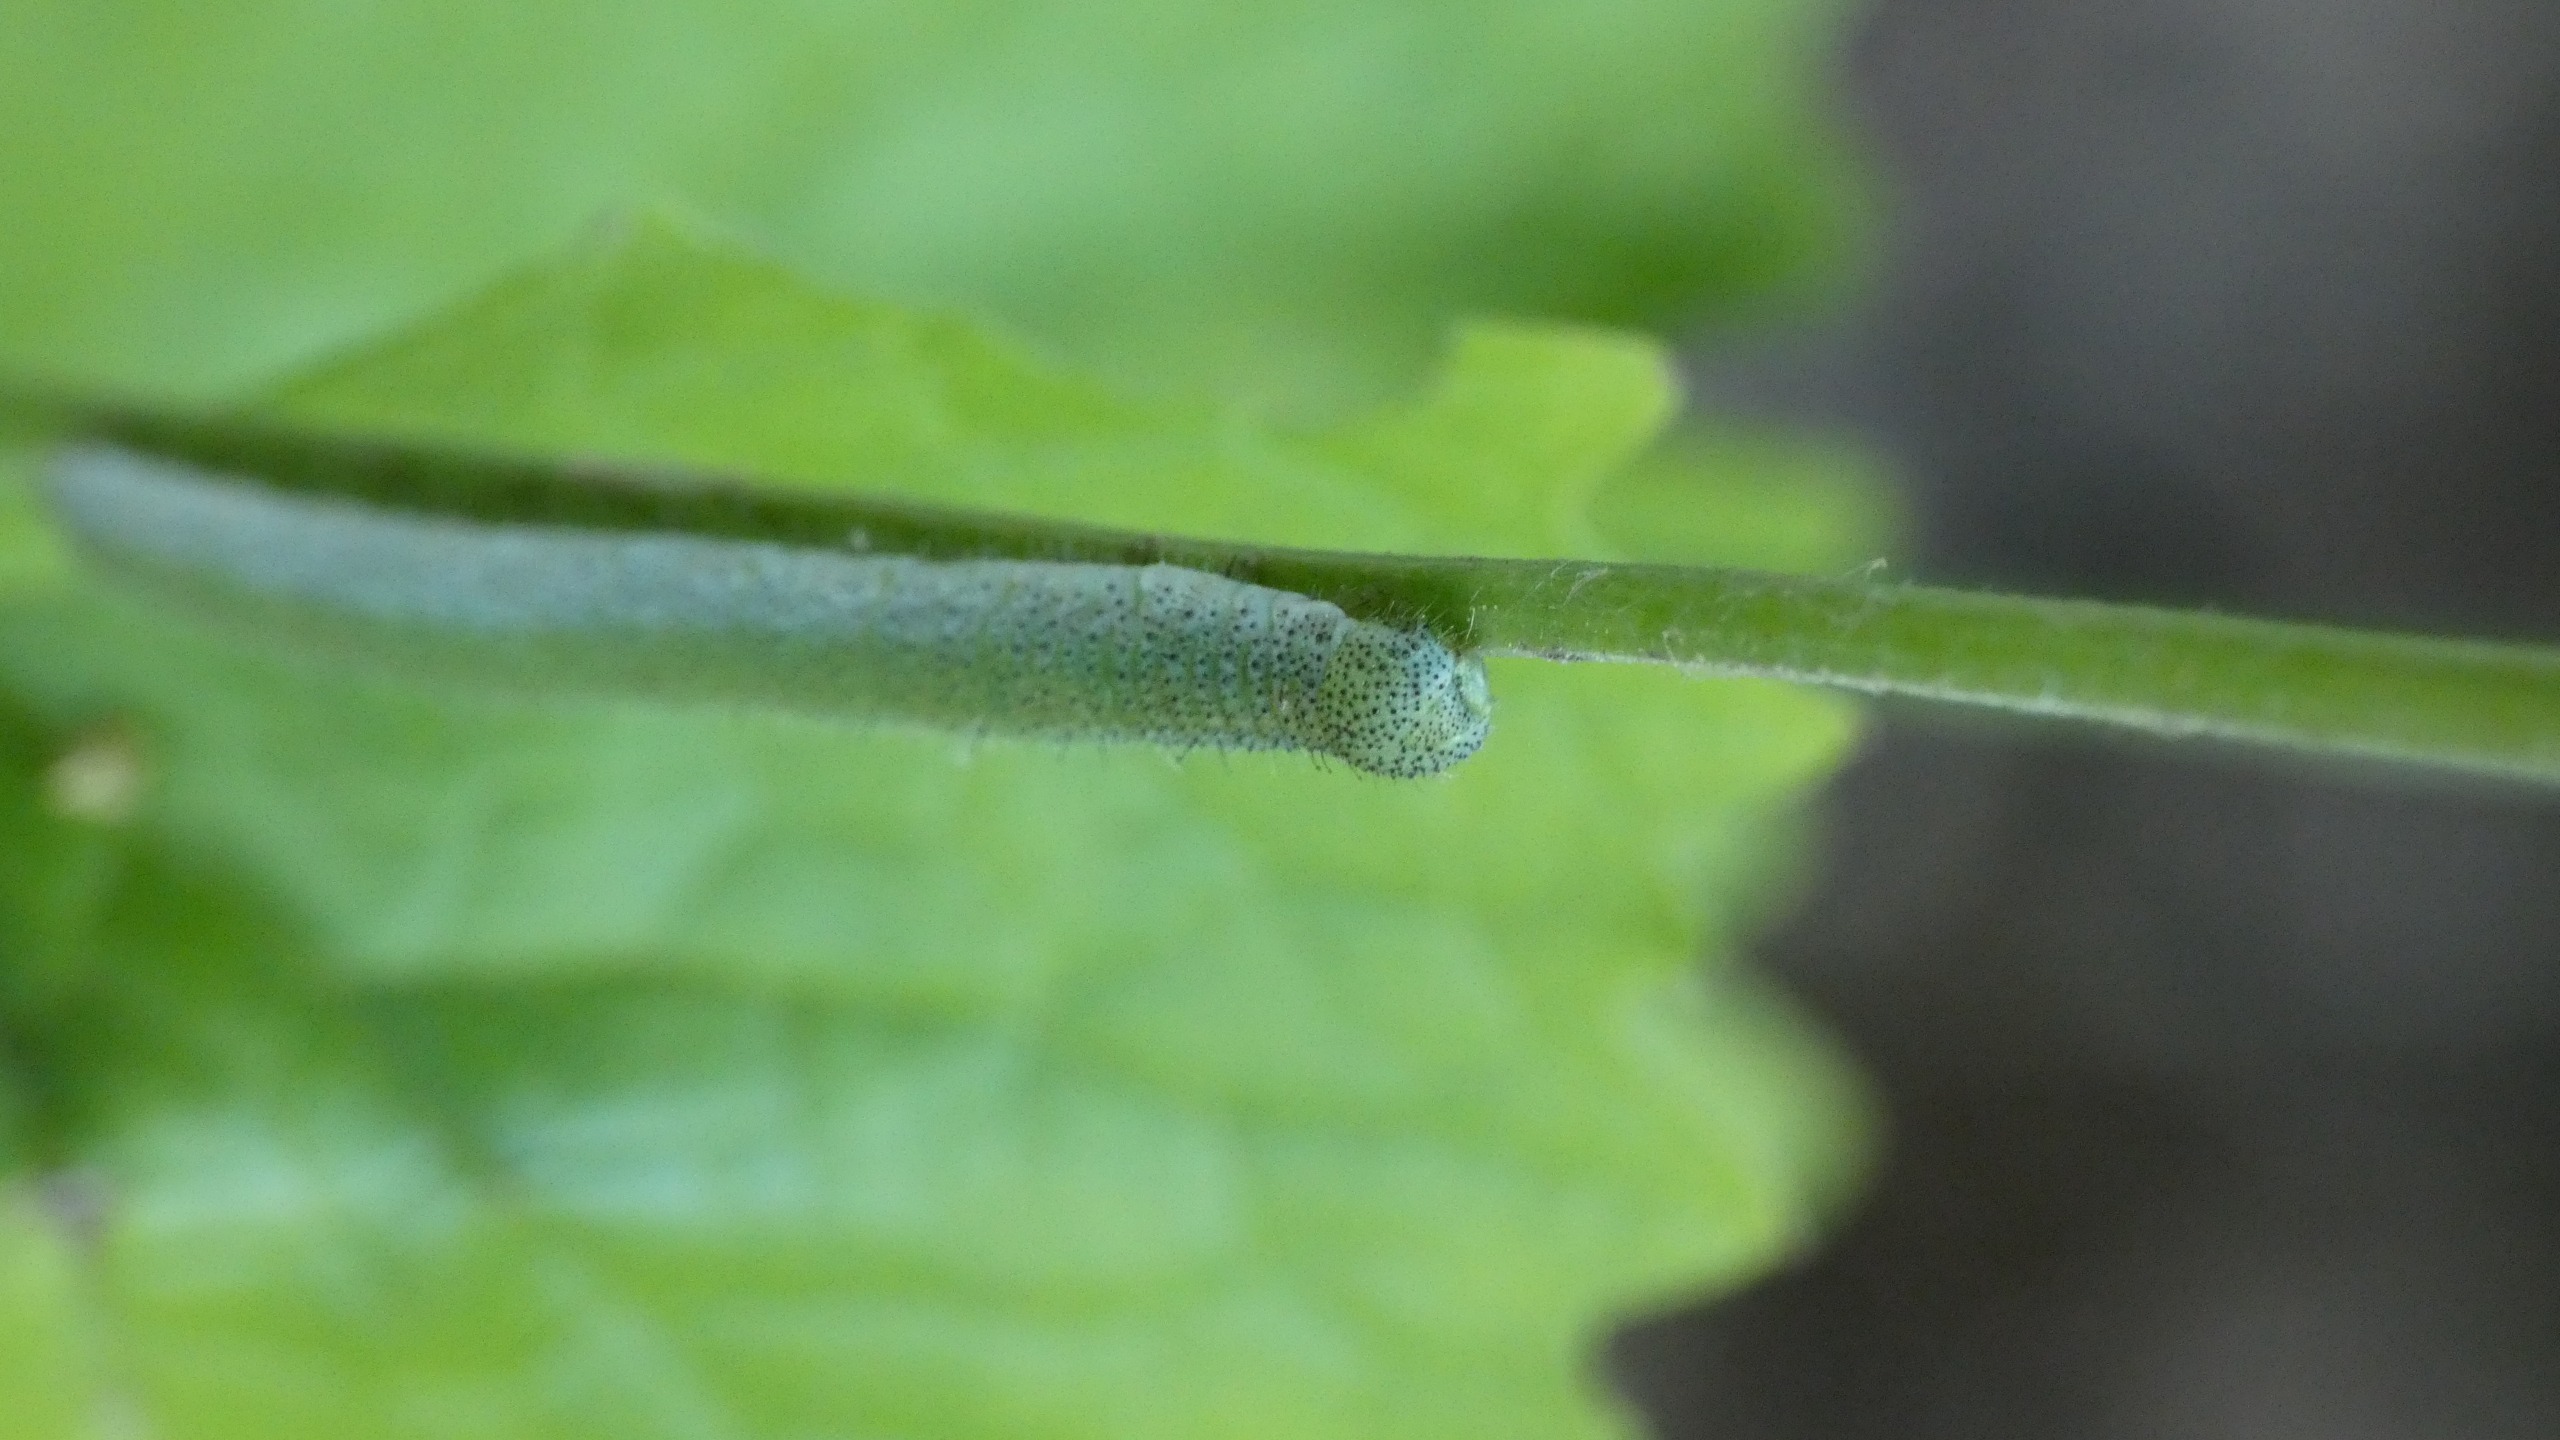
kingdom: Animalia
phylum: Arthropoda
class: Insecta
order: Lepidoptera
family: Pieridae
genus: Anthocharis
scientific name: Anthocharis cardamines
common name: Aurora
